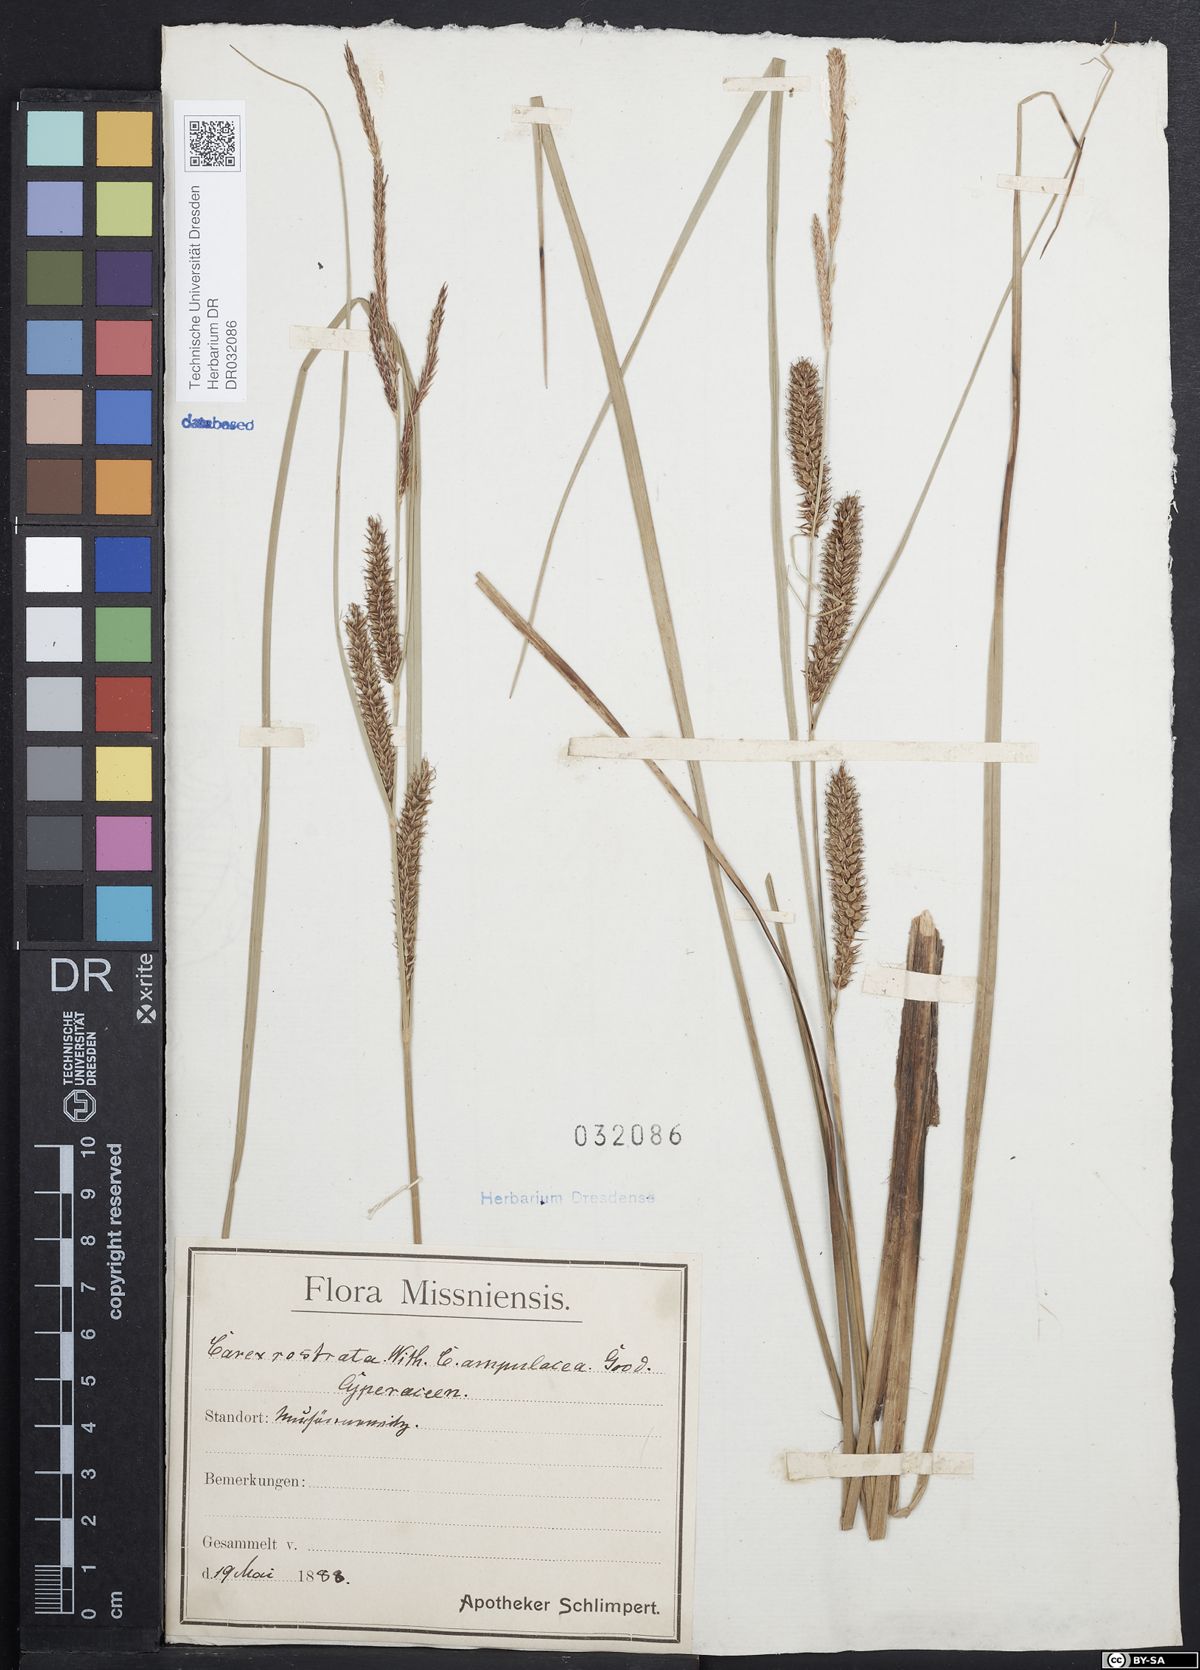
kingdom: Plantae
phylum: Tracheophyta
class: Liliopsida
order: Poales
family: Cyperaceae
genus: Carex
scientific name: Carex rostrata
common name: Bottle sedge
